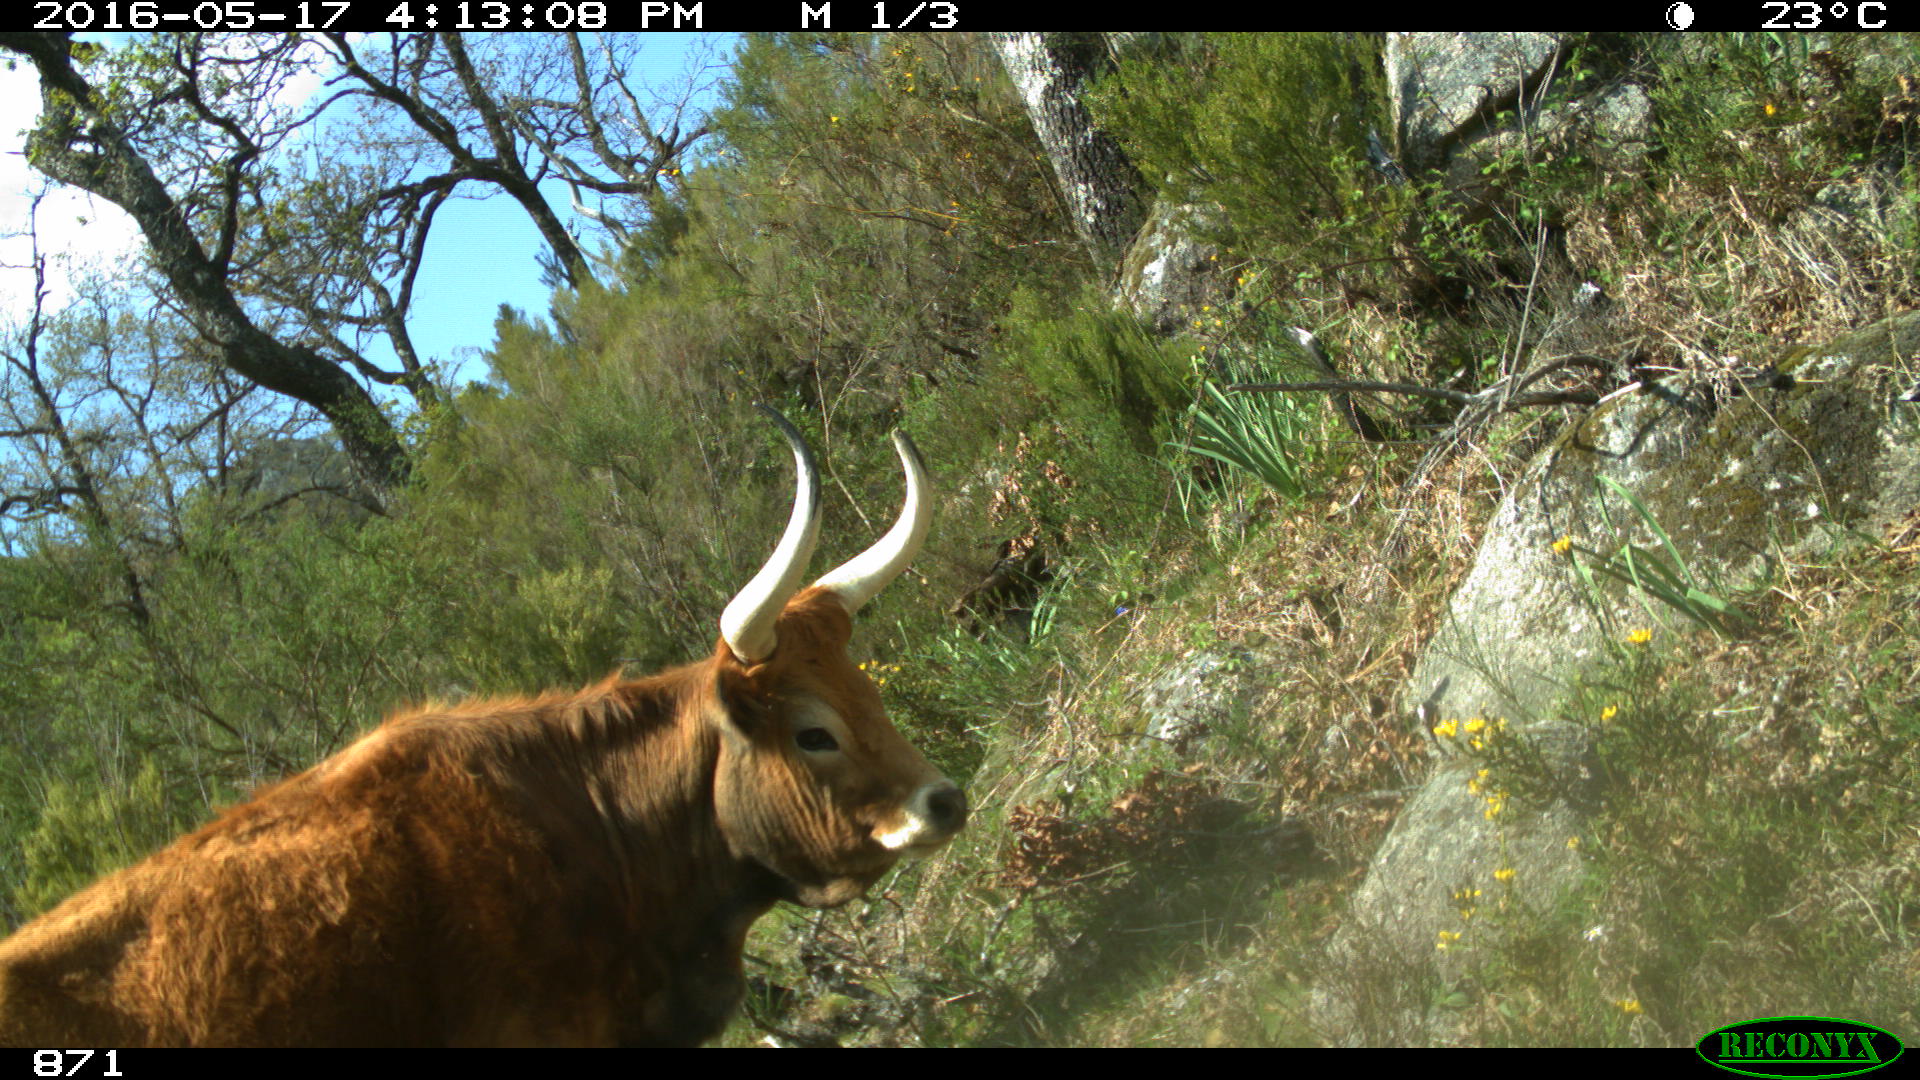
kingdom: Animalia
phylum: Chordata
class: Mammalia
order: Artiodactyla
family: Bovidae
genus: Bos
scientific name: Bos taurus
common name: Domesticated cattle
